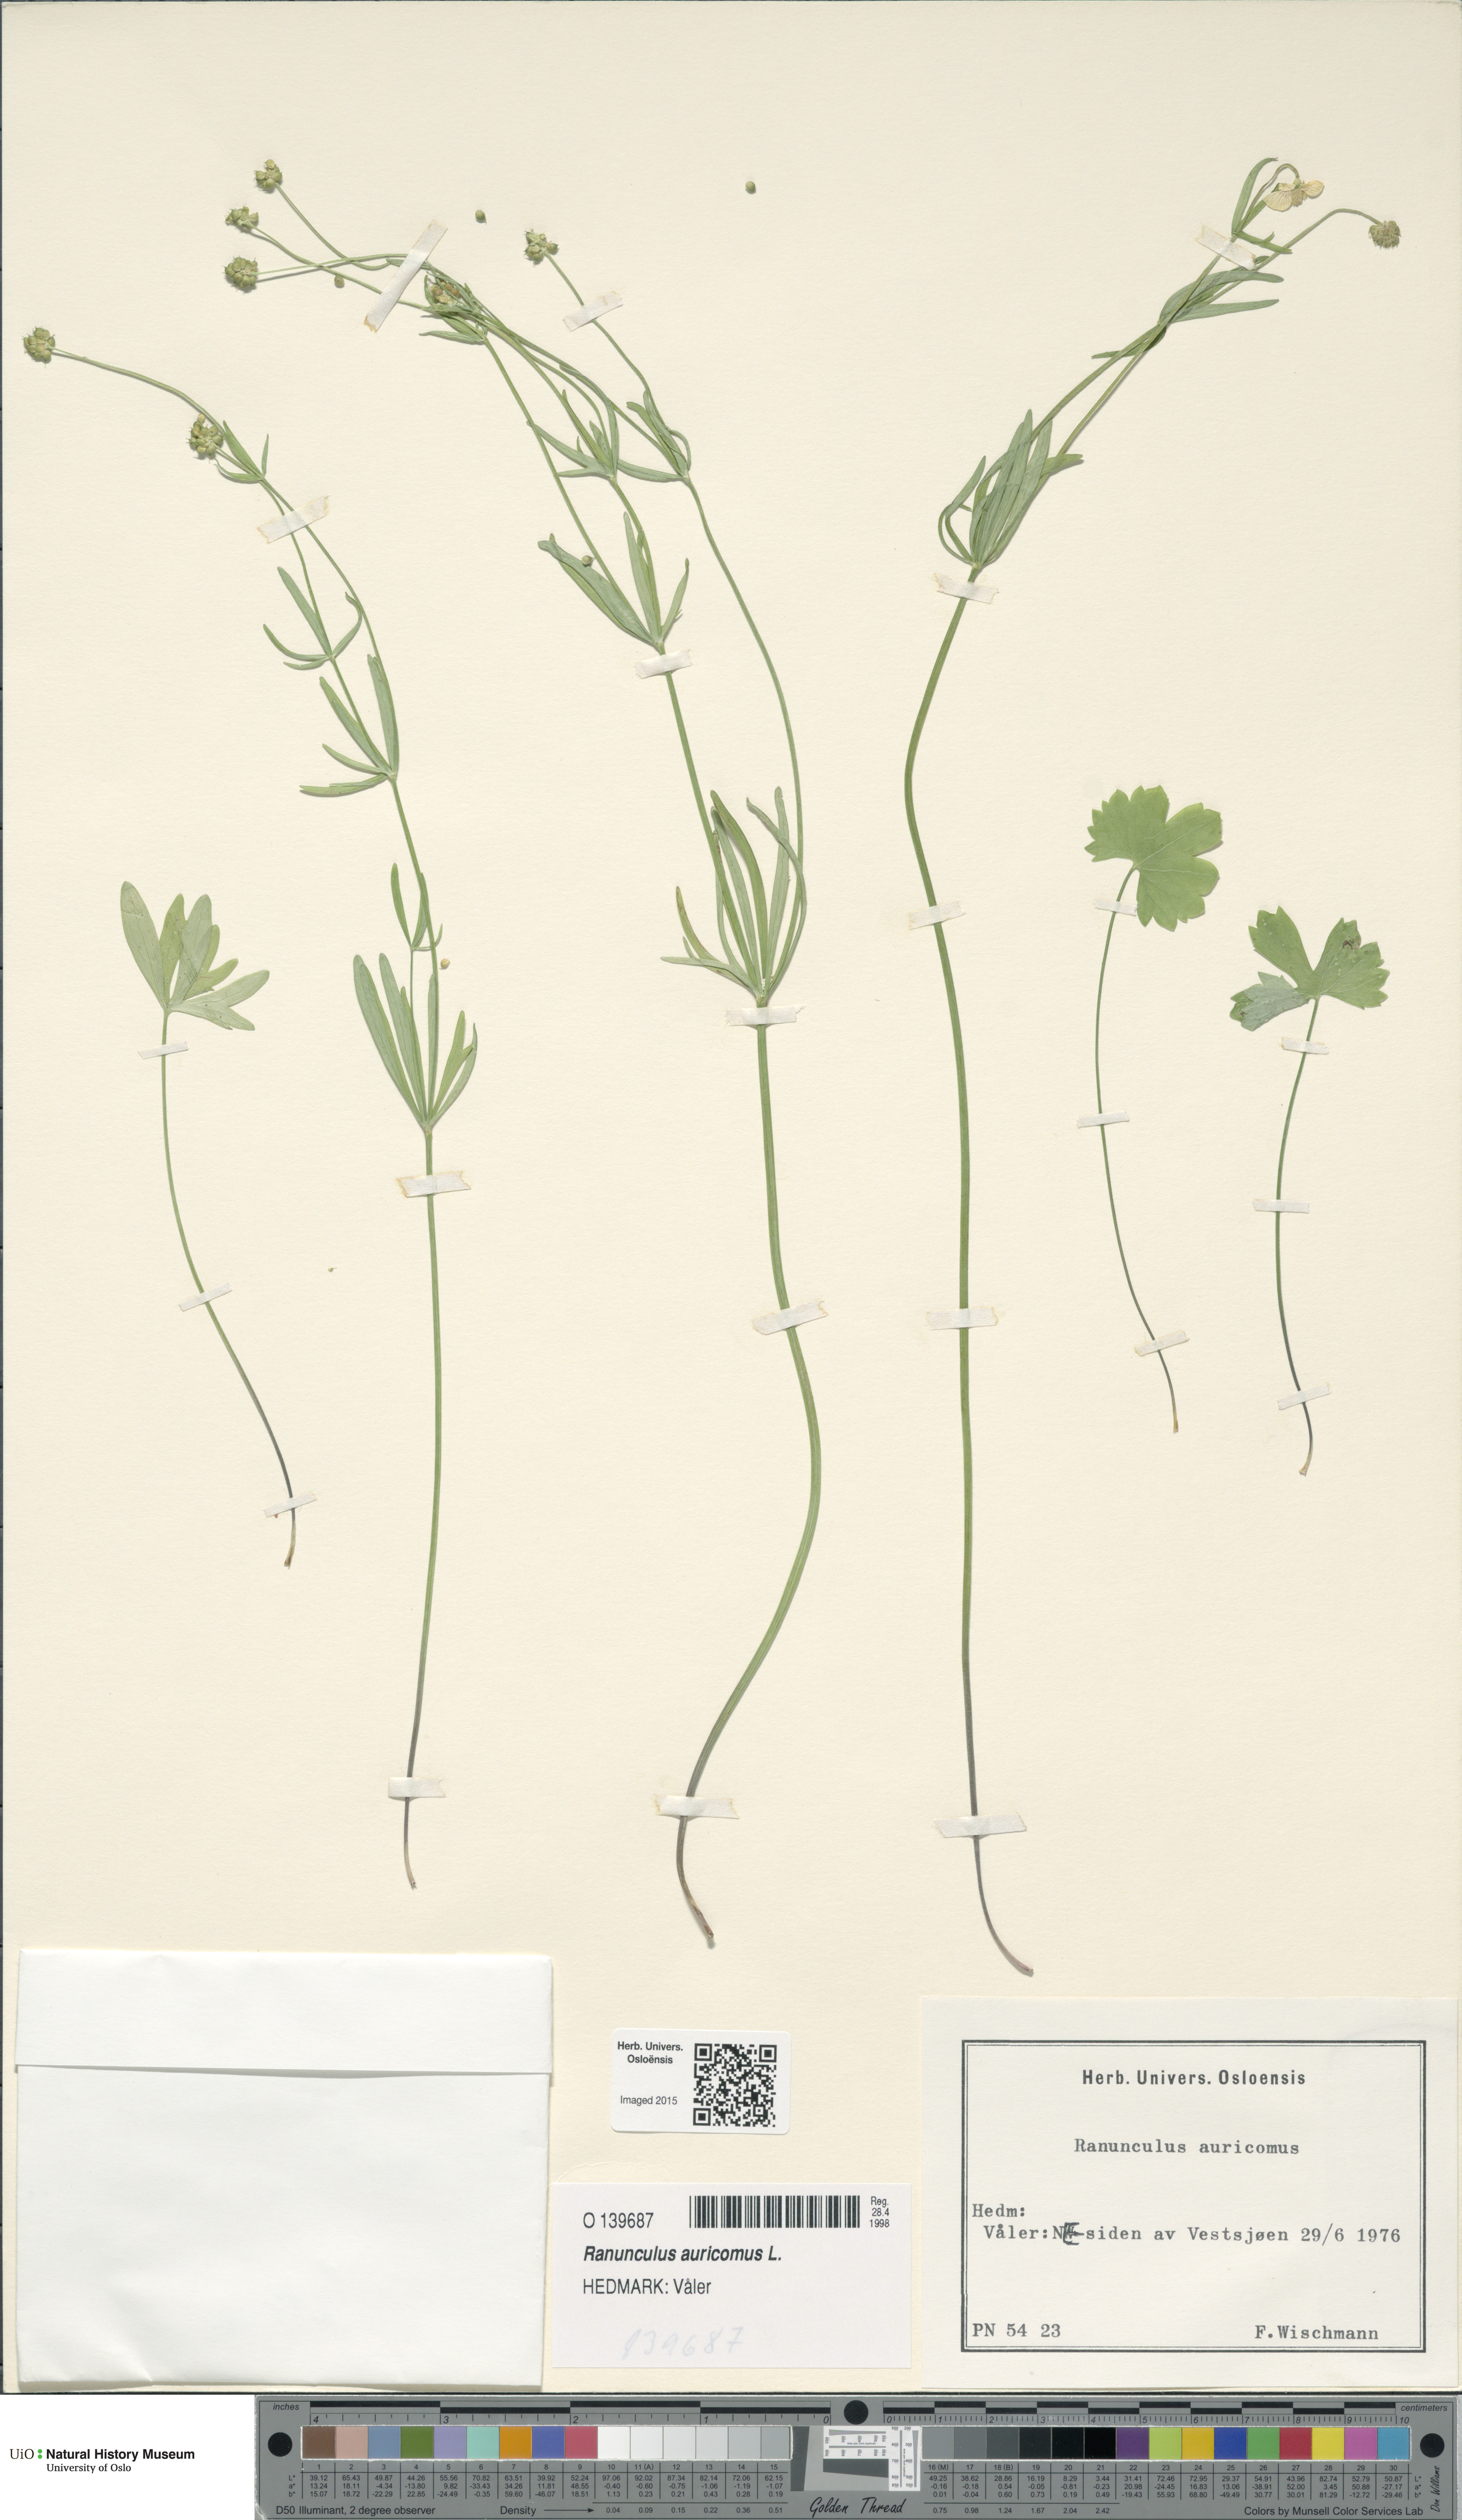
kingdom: Plantae
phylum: Tracheophyta
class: Magnoliopsida
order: Ranunculales
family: Ranunculaceae
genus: Ranunculus
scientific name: Ranunculus auricomus
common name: Goldilocks buttercup
